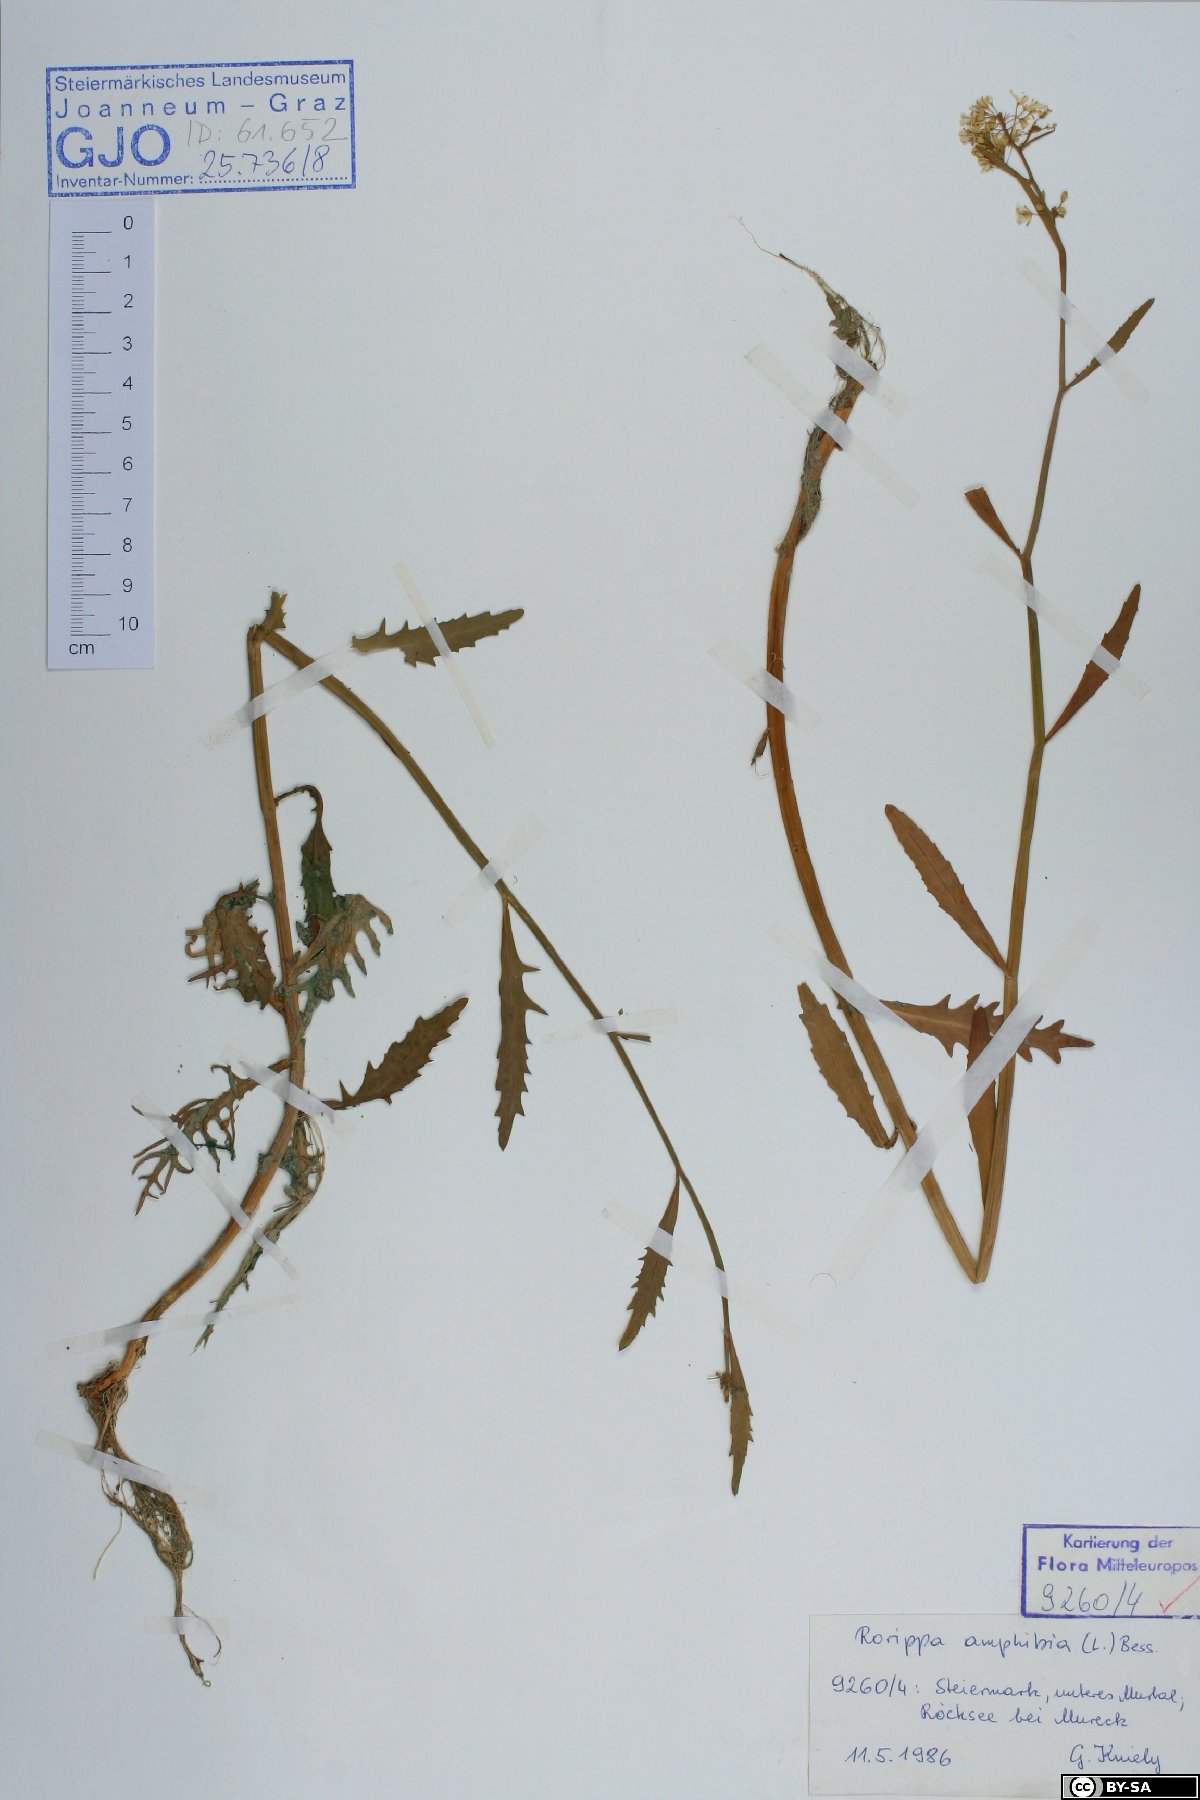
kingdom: Plantae
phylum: Tracheophyta
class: Magnoliopsida
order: Brassicales
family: Brassicaceae
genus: Rorippa
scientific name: Rorippa amphibia
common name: Great yellow-cress
